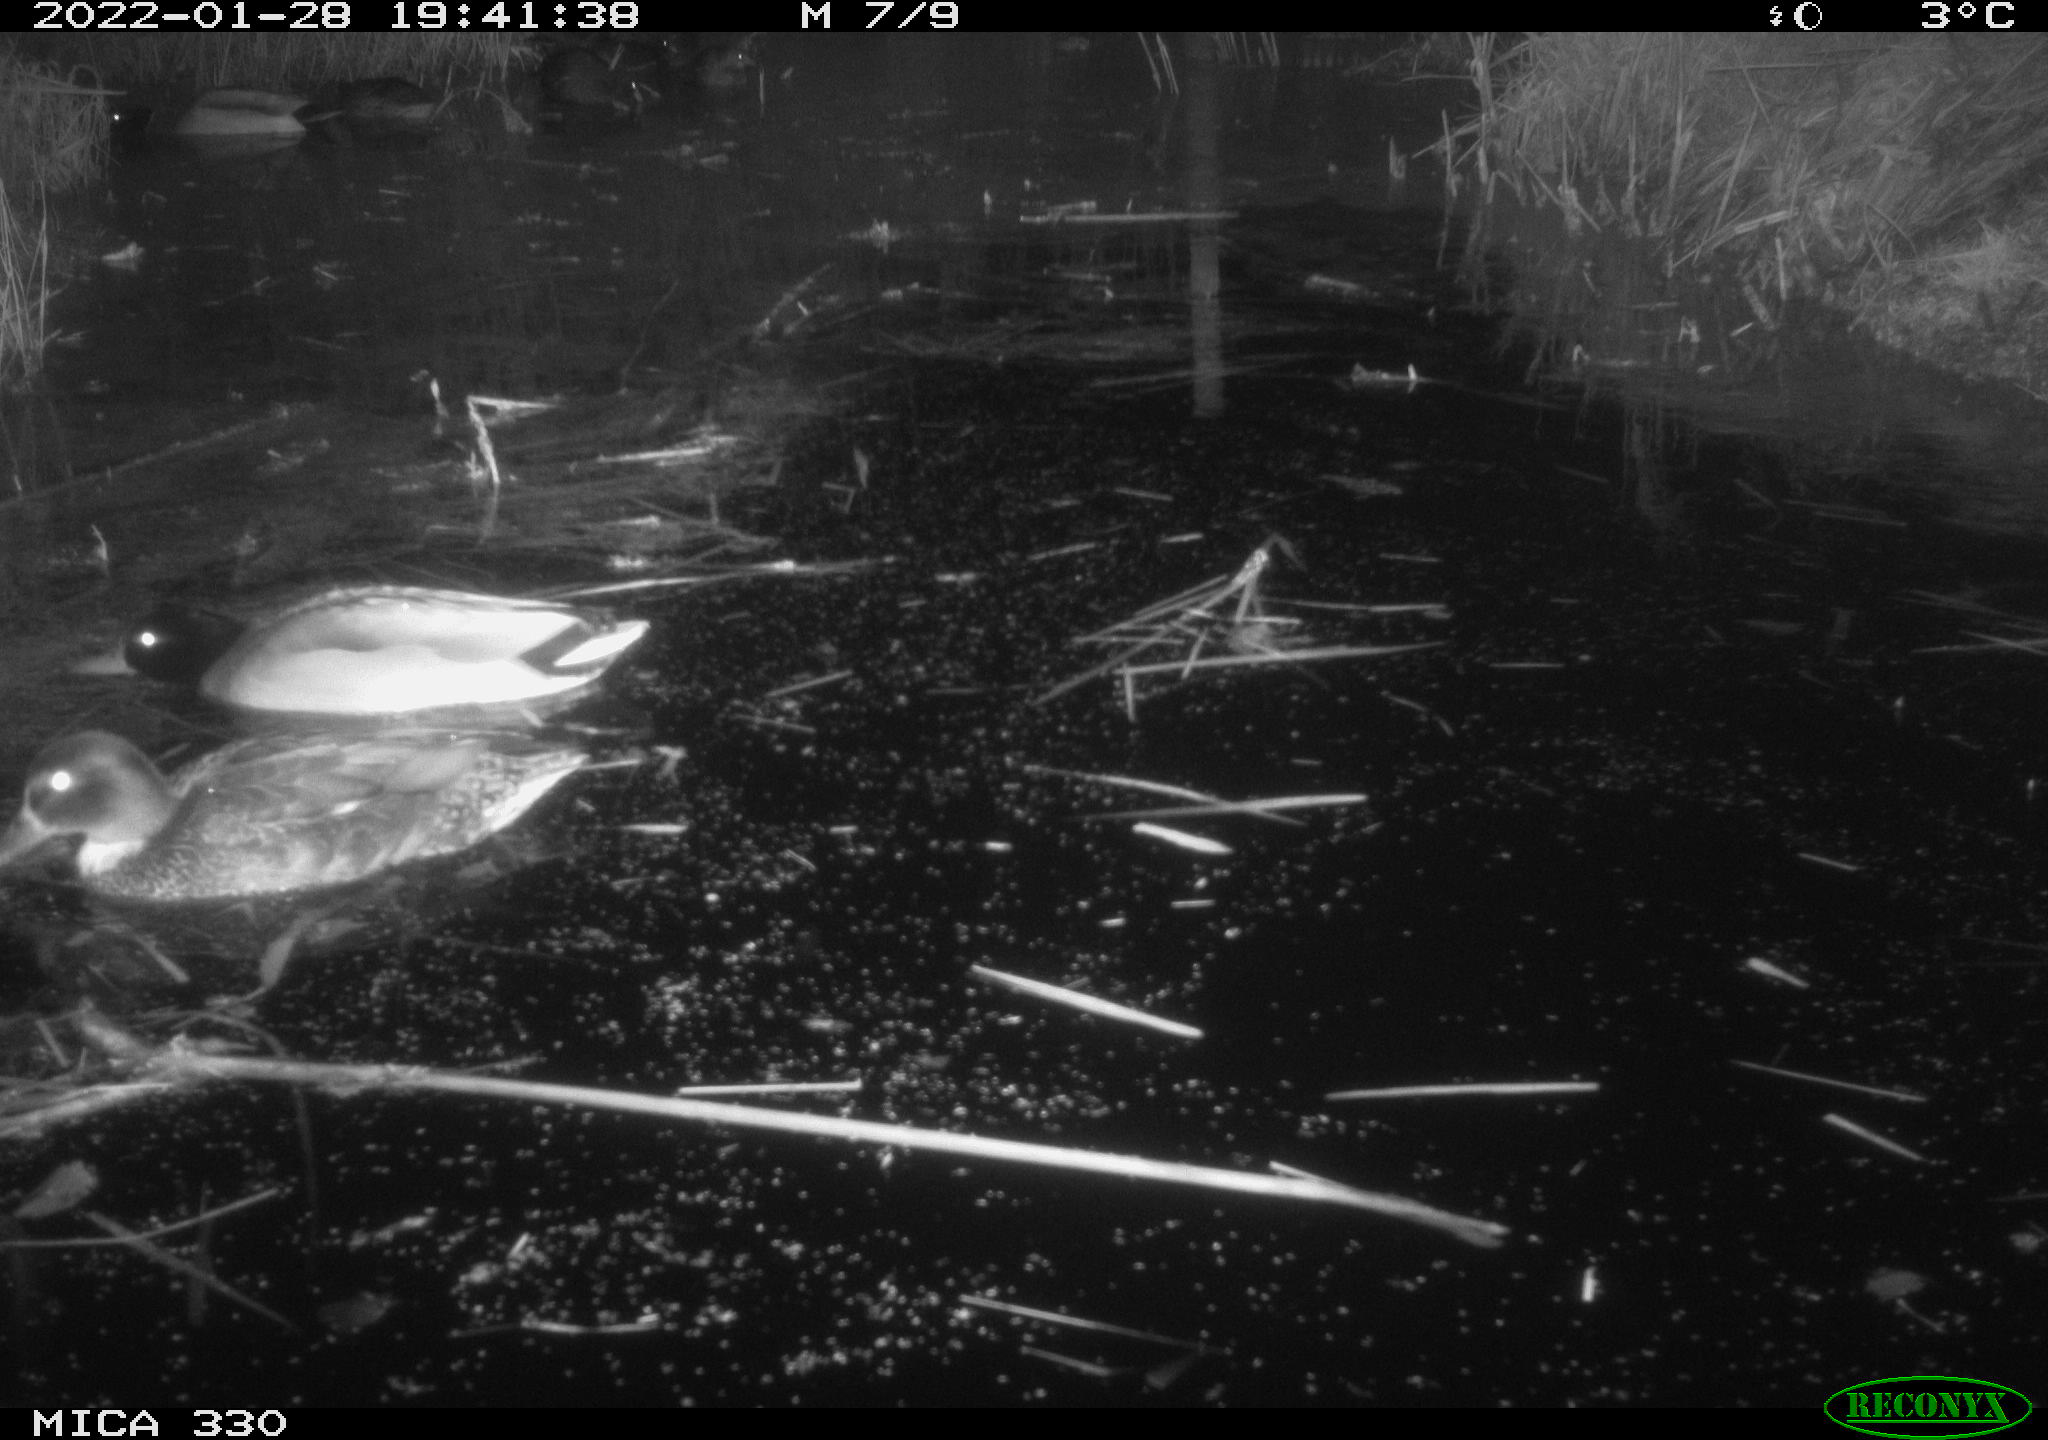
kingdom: Animalia
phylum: Chordata
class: Aves
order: Anseriformes
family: Anatidae
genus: Anas
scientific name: Anas platyrhynchos
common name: Mallard
